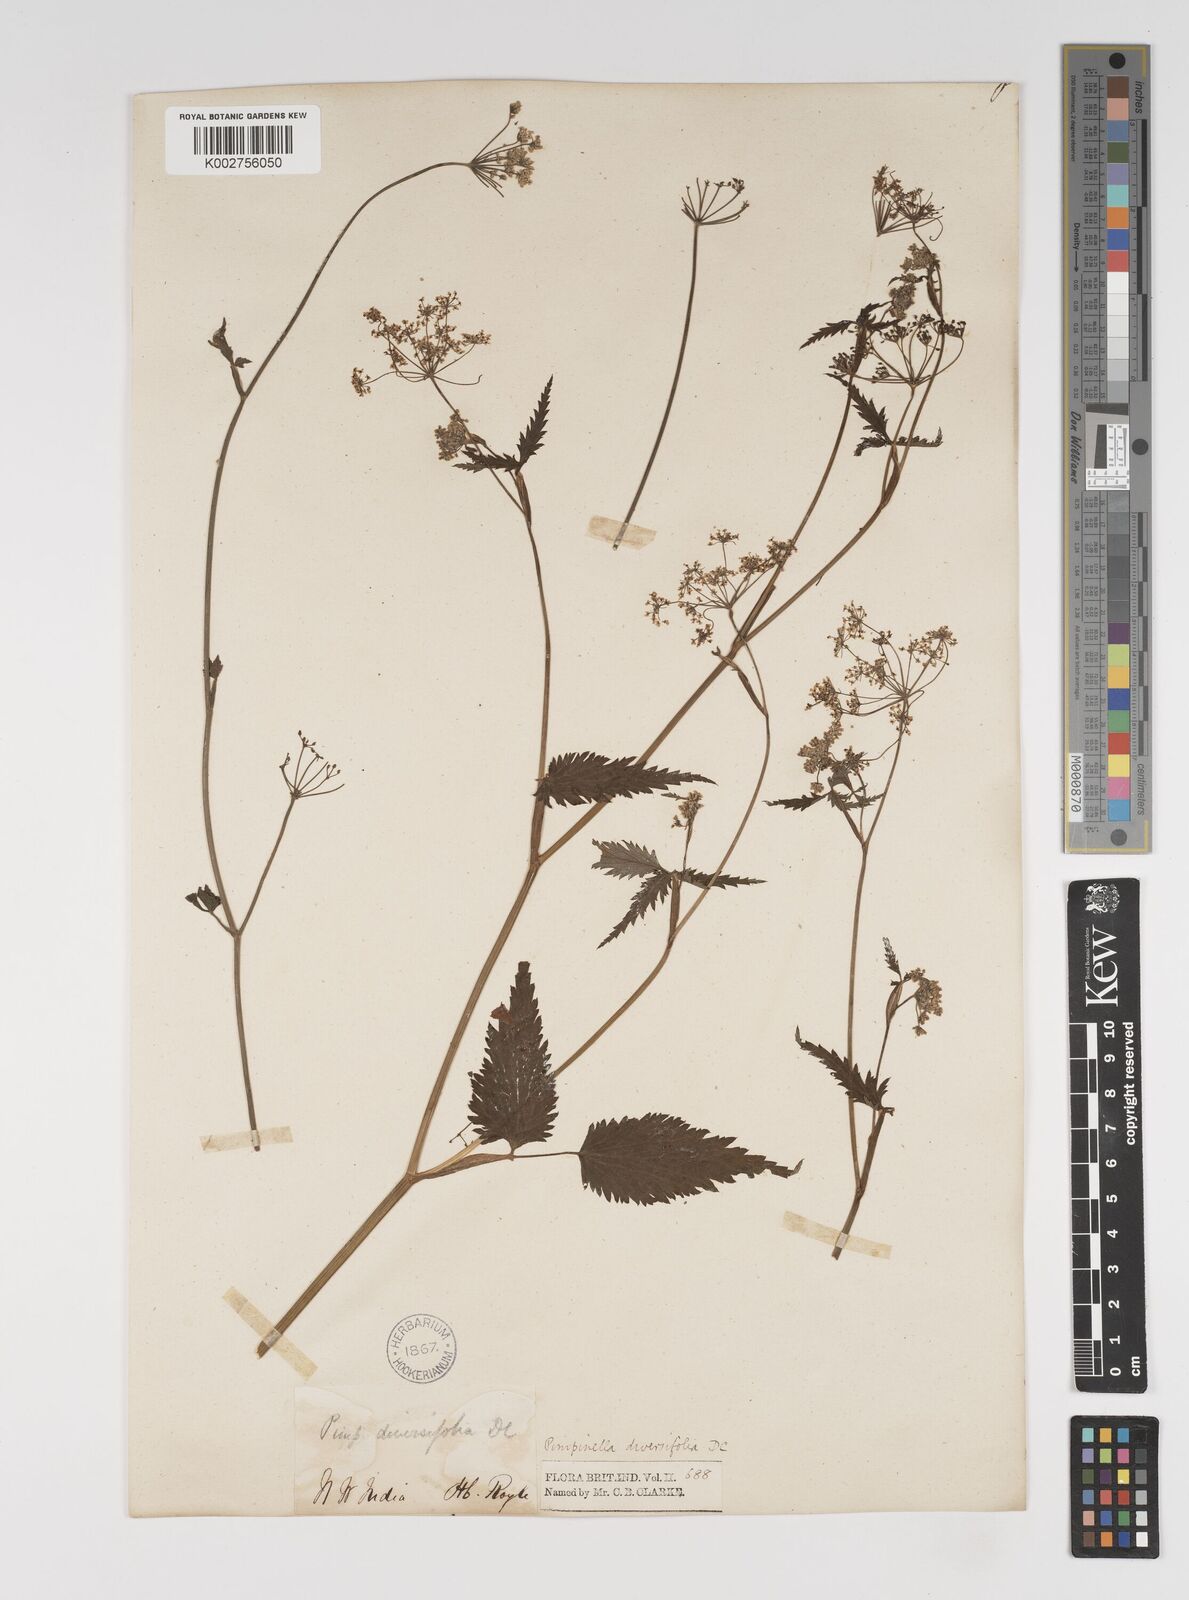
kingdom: Plantae
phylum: Tracheophyta
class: Magnoliopsida
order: Apiales
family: Apiaceae
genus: Pimpinella
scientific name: Pimpinella diversifolia
